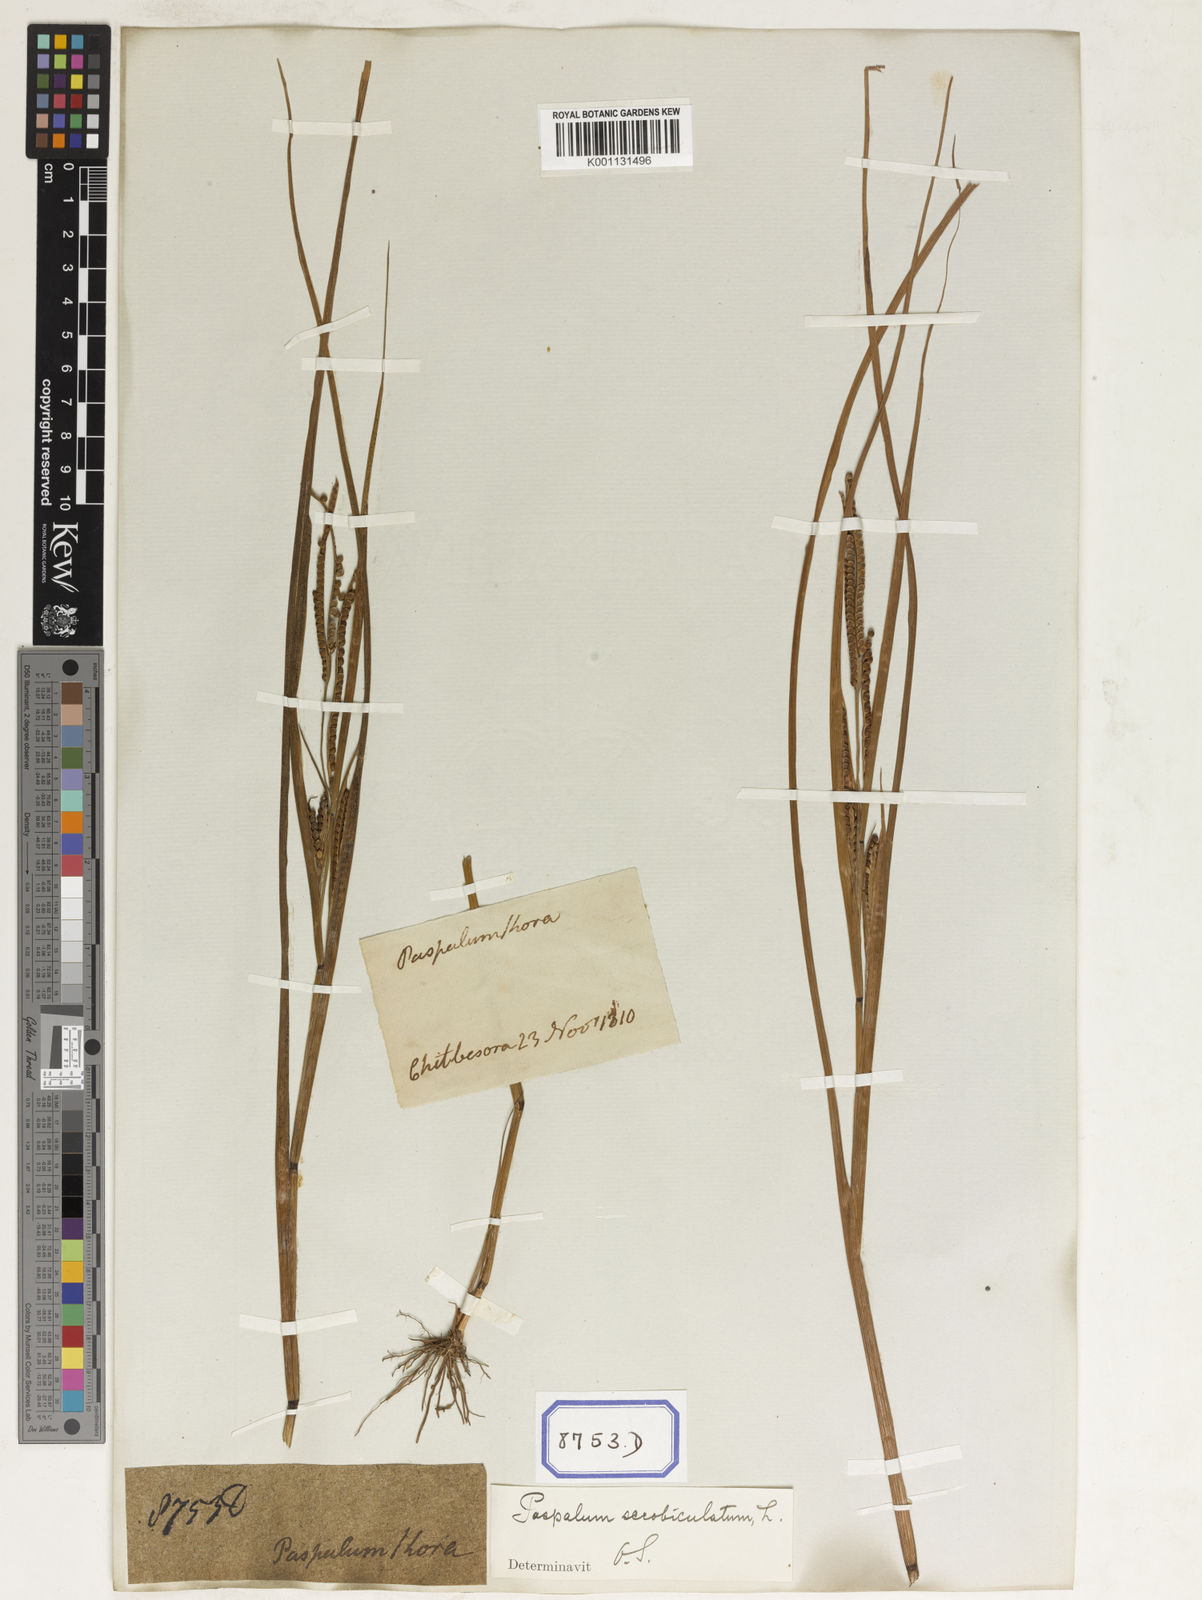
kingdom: Plantae
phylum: Tracheophyta
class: Liliopsida
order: Poales
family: Poaceae
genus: Paspalum
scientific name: Paspalum scrobiculatum
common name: Kodo millet
